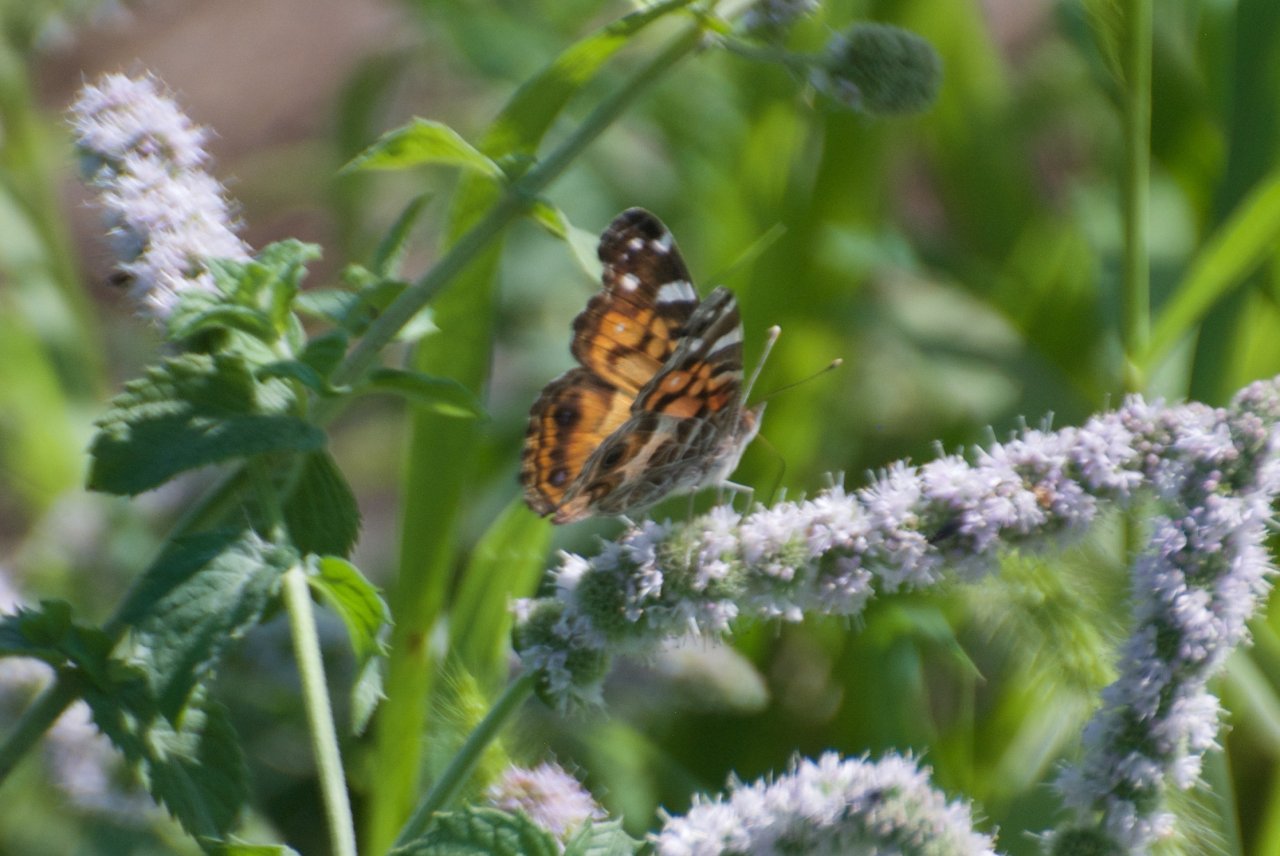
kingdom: Animalia
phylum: Arthropoda
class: Insecta
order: Lepidoptera
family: Nymphalidae
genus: Vanessa
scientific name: Vanessa virginiensis
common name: American Lady
